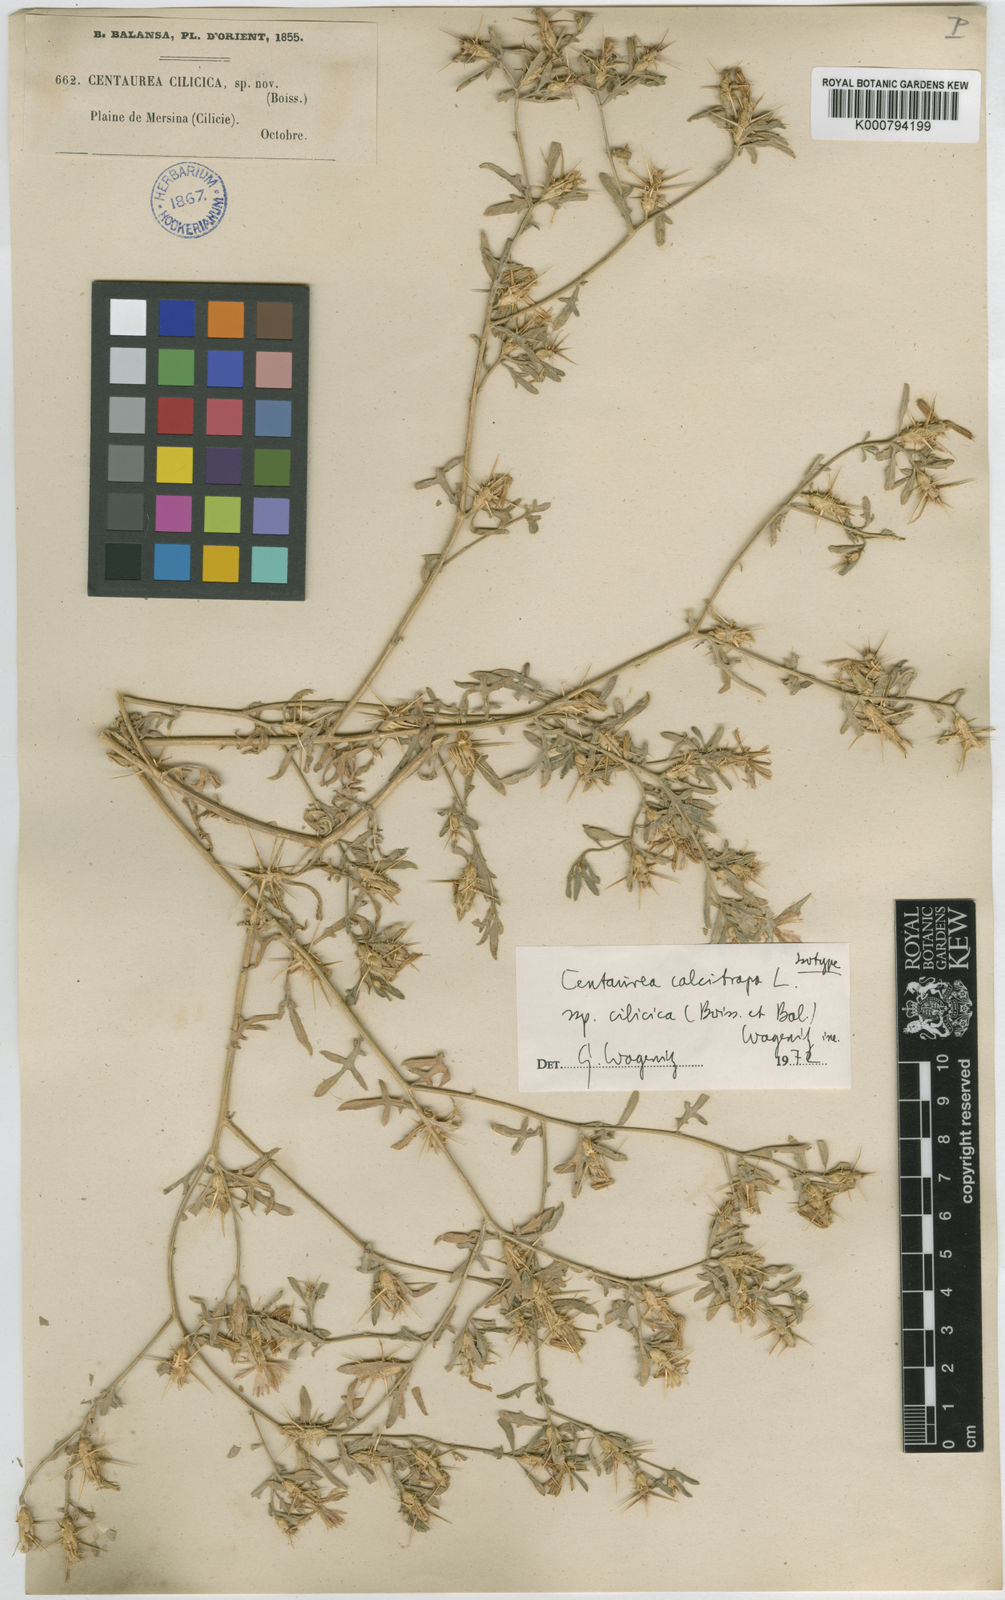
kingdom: Plantae
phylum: Tracheophyta
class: Magnoliopsida
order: Asterales
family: Asteraceae
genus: Centaurea
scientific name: Centaurea calcitrapa
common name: Red star-thistle
